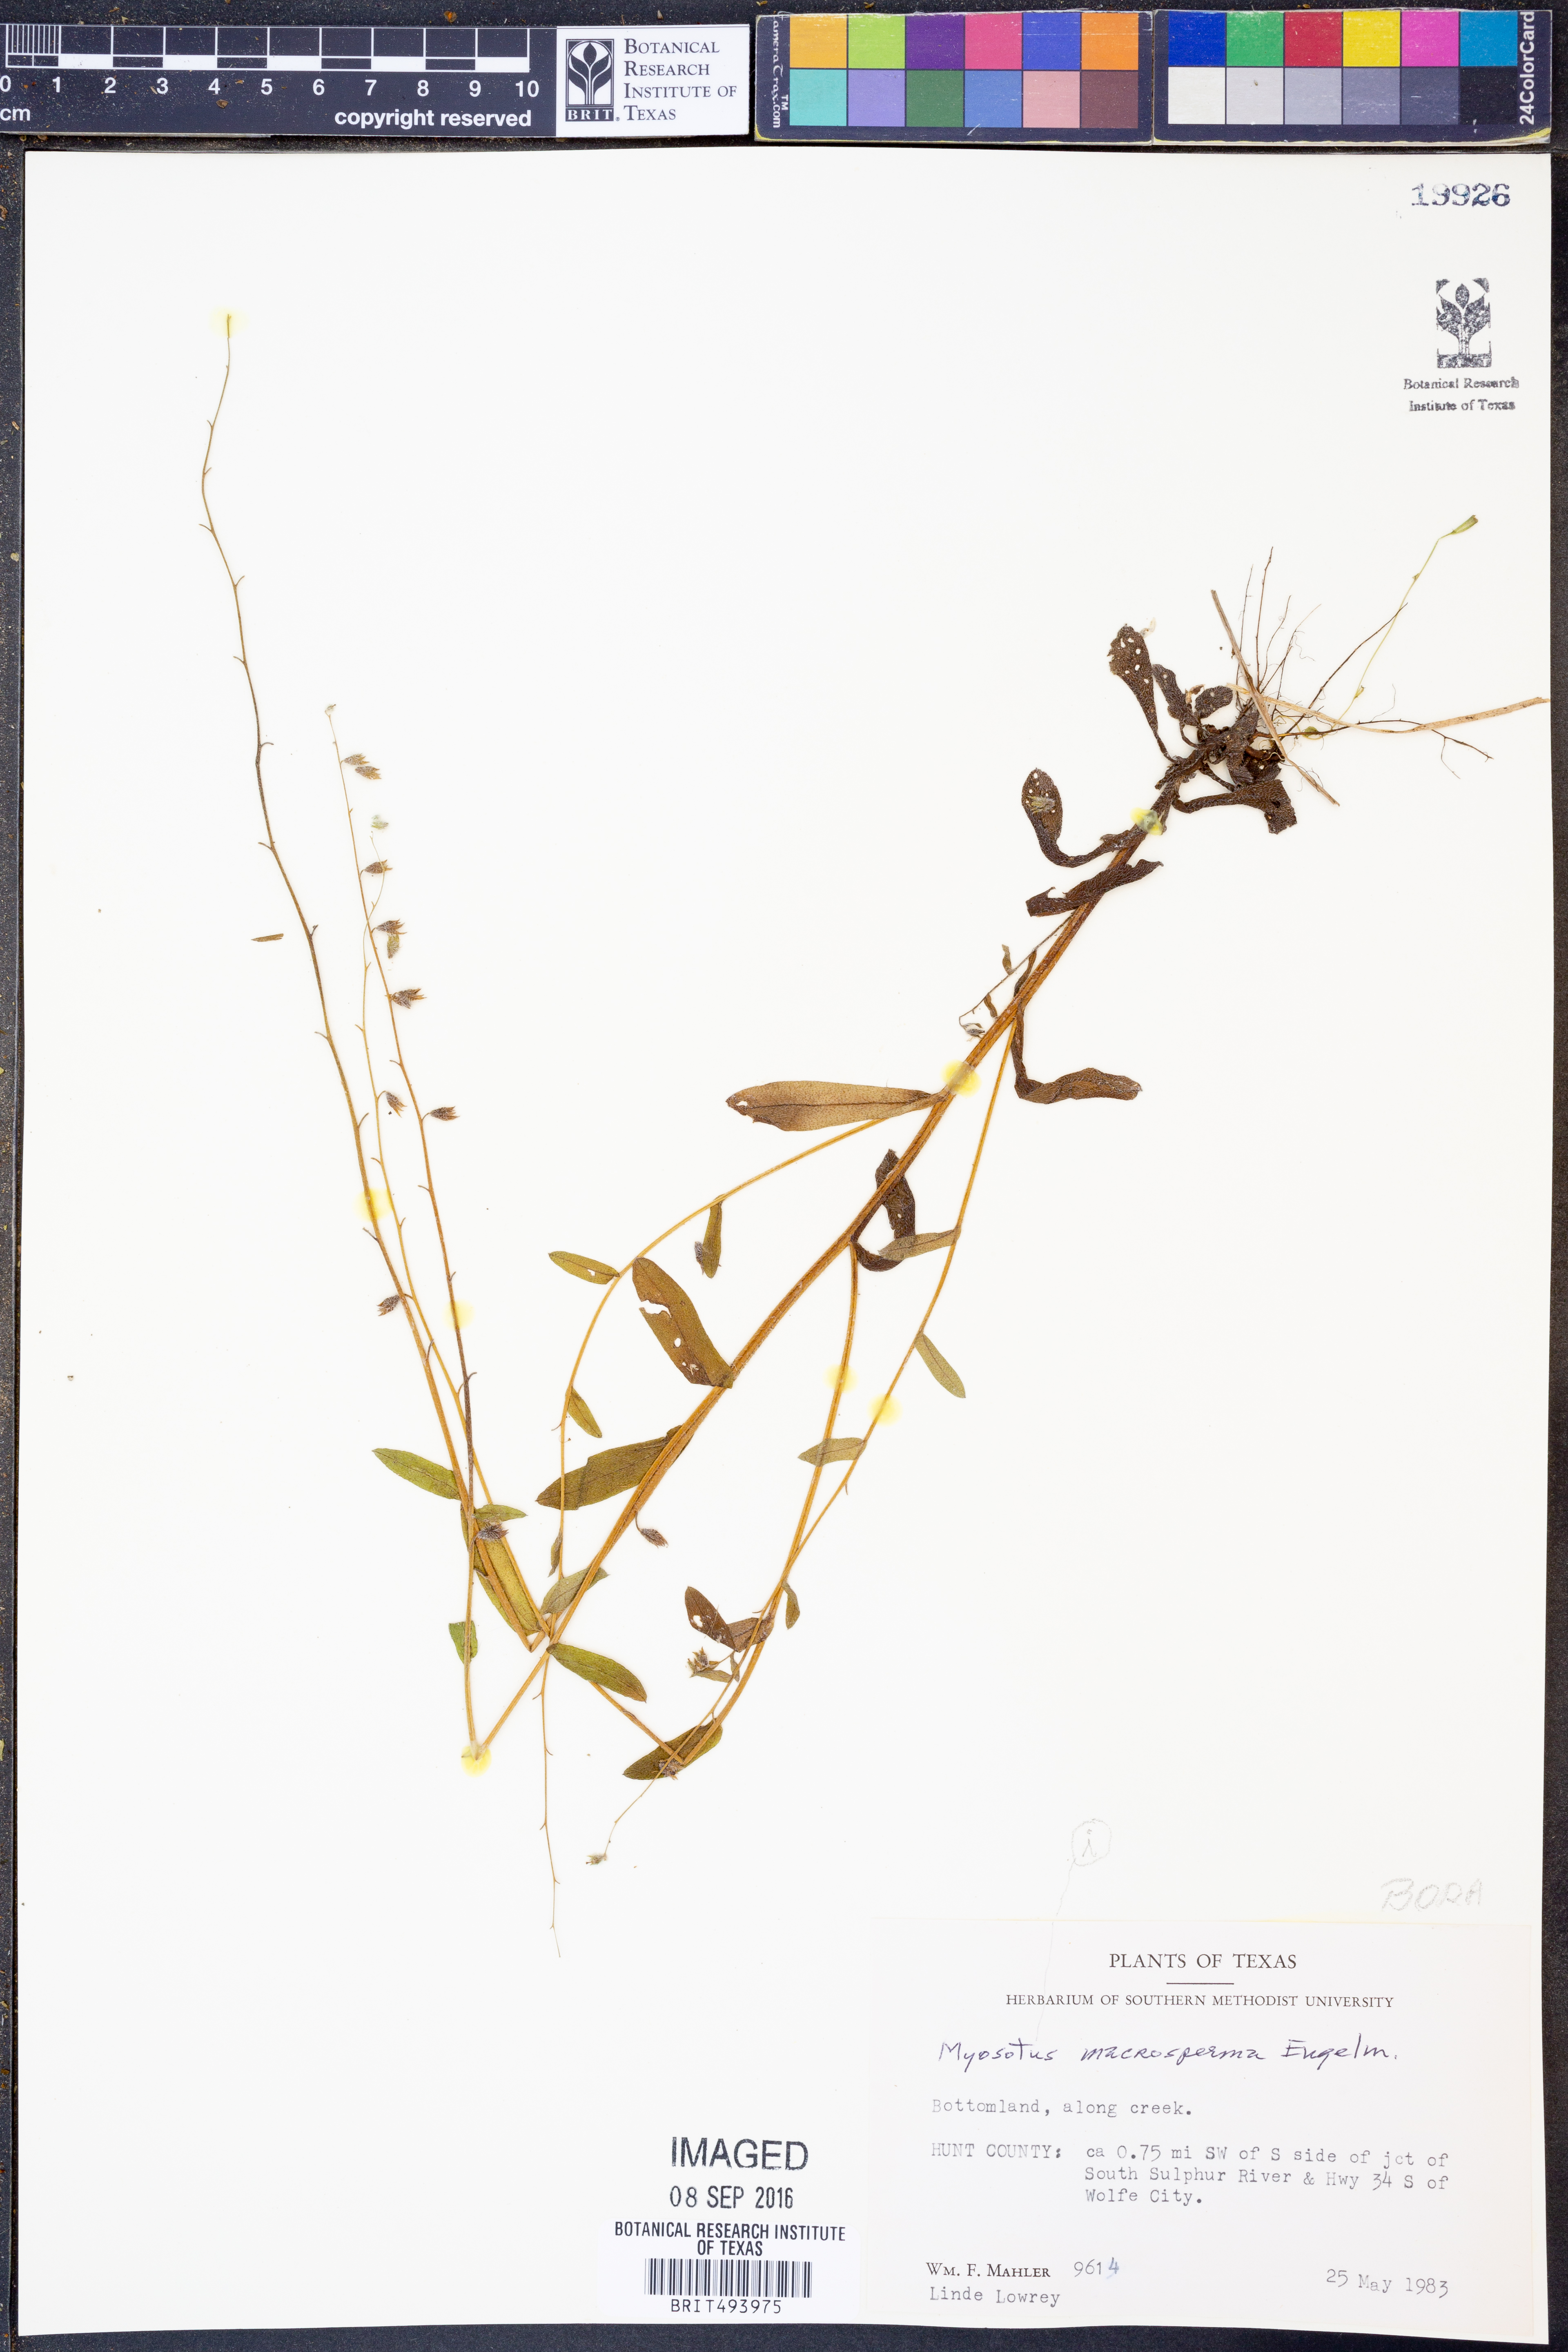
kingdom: Plantae
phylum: Tracheophyta
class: Magnoliopsida
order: Boraginales
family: Boraginaceae
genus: Myosotis
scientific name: Myosotis macrosperma
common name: Large-seed forget-me-not
